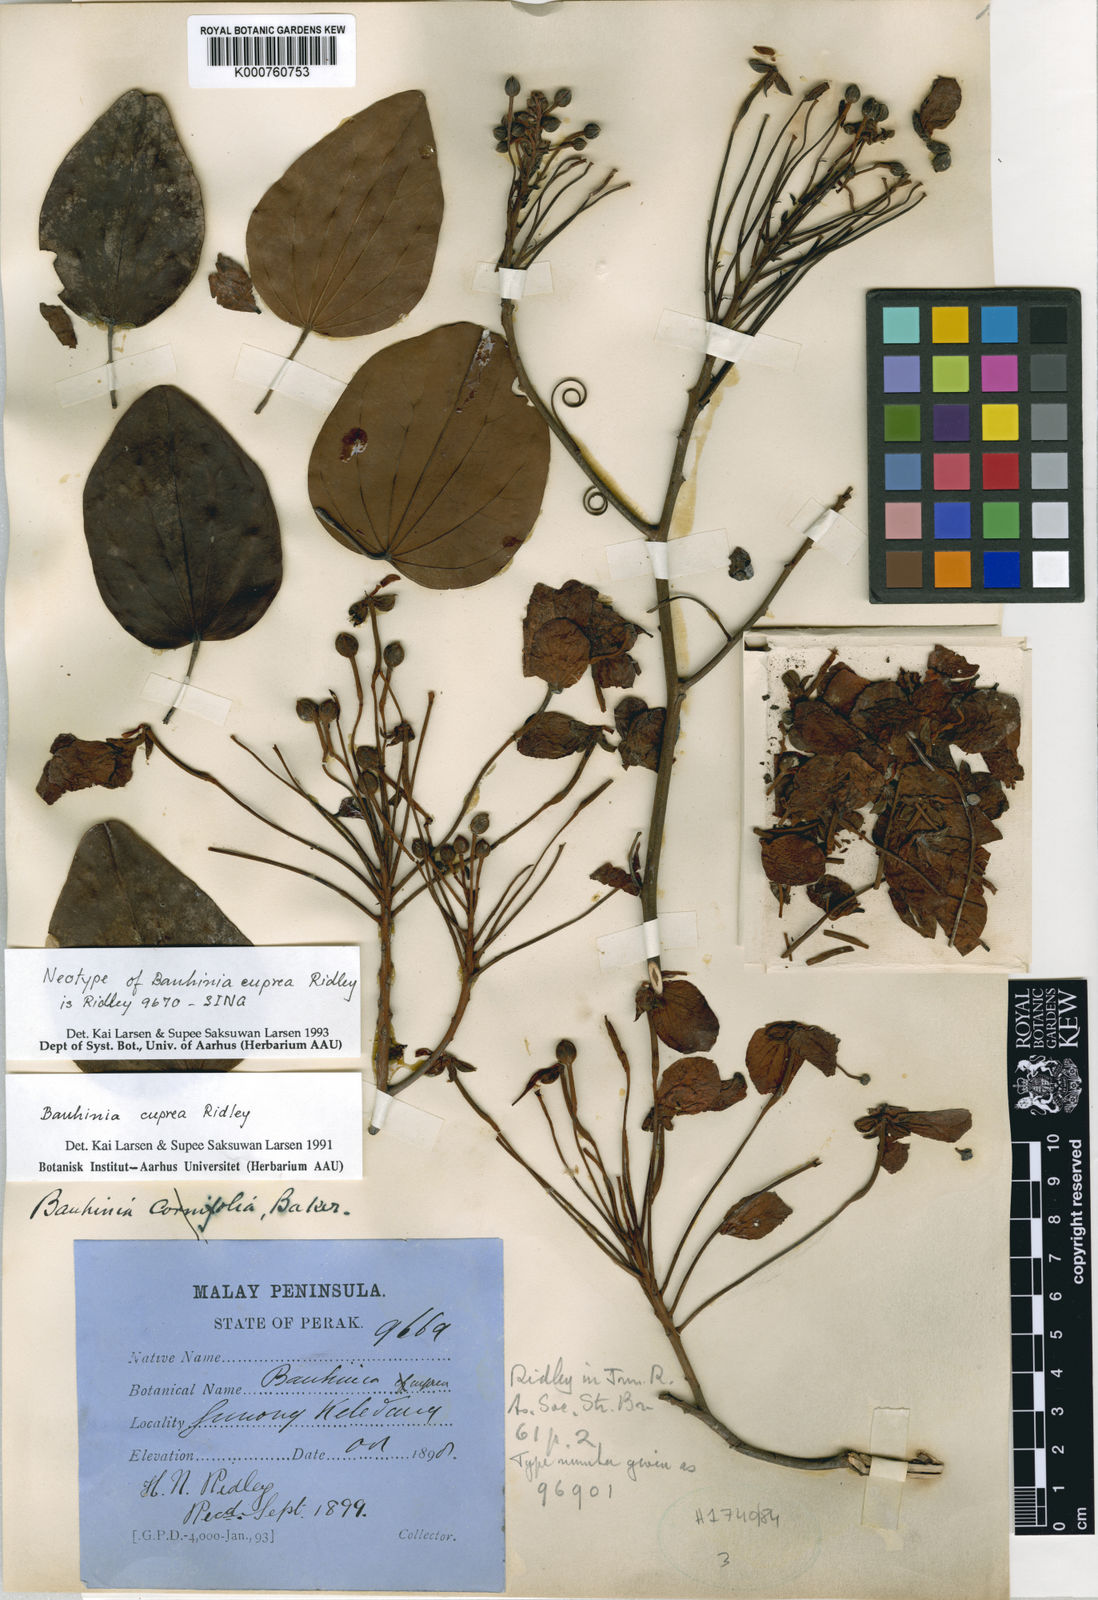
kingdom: Plantae
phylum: Tracheophyta
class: Magnoliopsida
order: Fabales
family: Fabaceae
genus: Phanera
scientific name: Phanera cuprea
